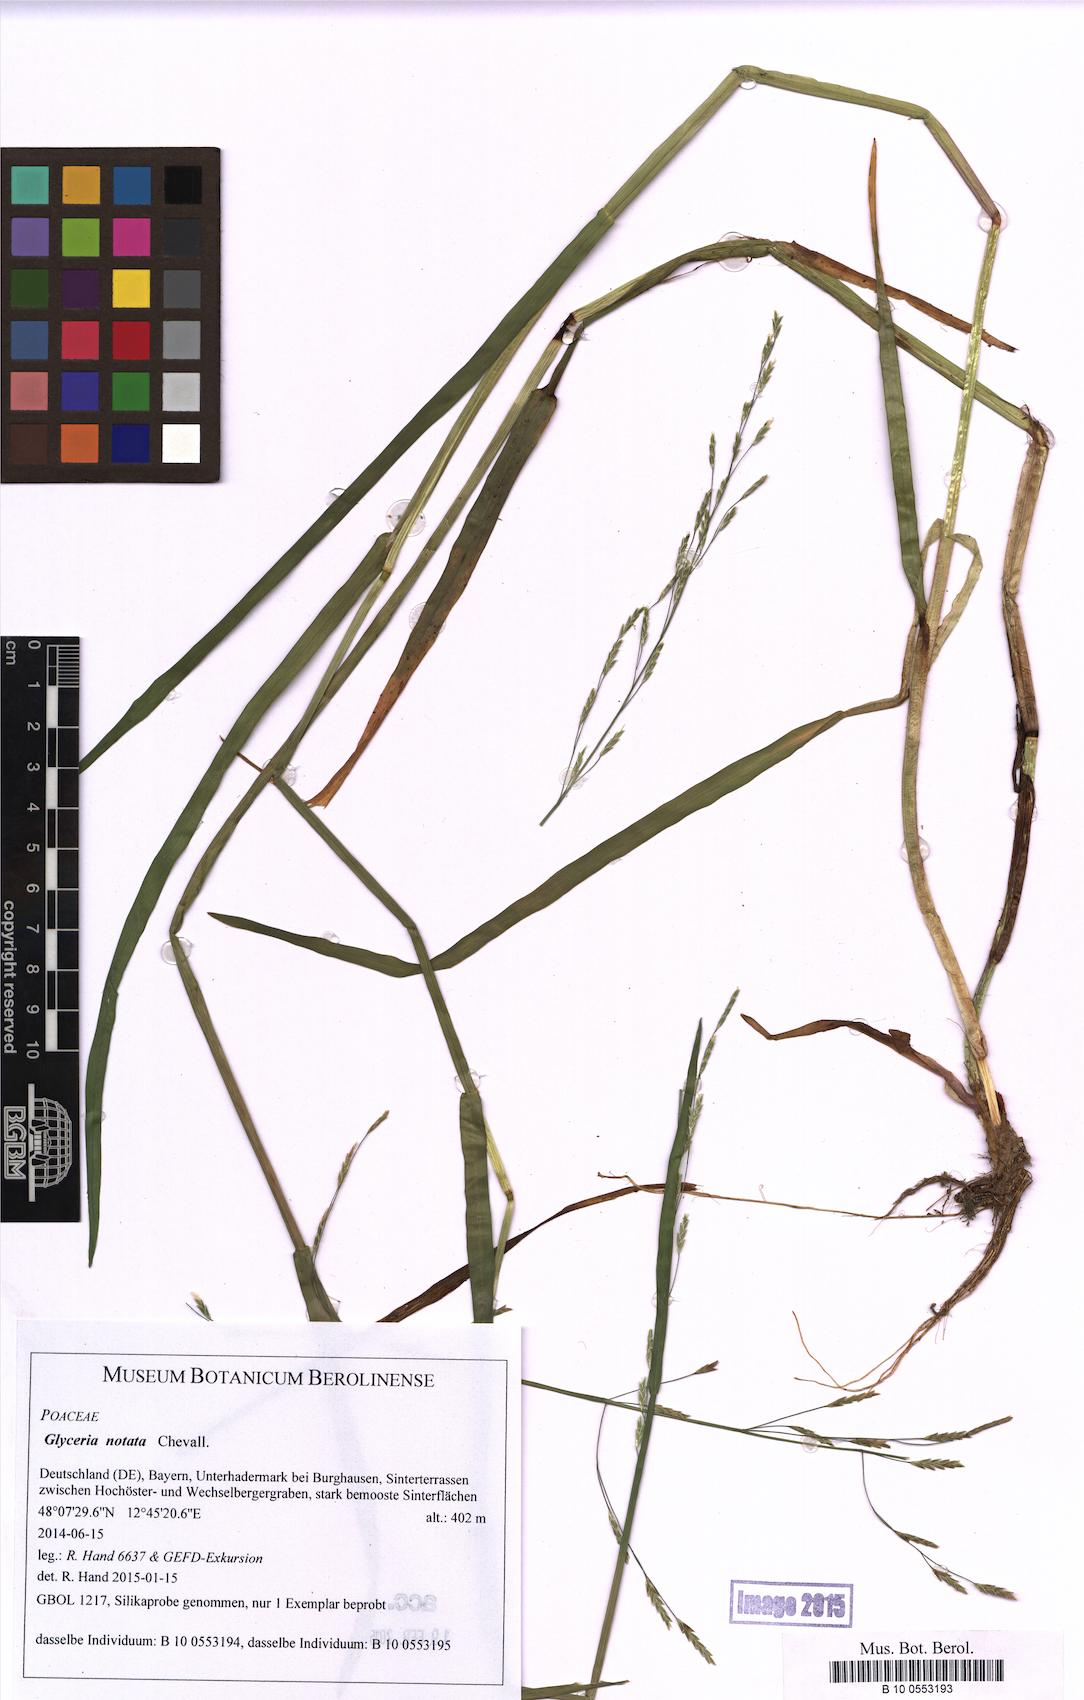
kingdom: Plantae
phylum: Tracheophyta
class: Liliopsida
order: Poales
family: Poaceae
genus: Glyceria
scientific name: Glyceria notata
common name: Plicate sweet-grass
